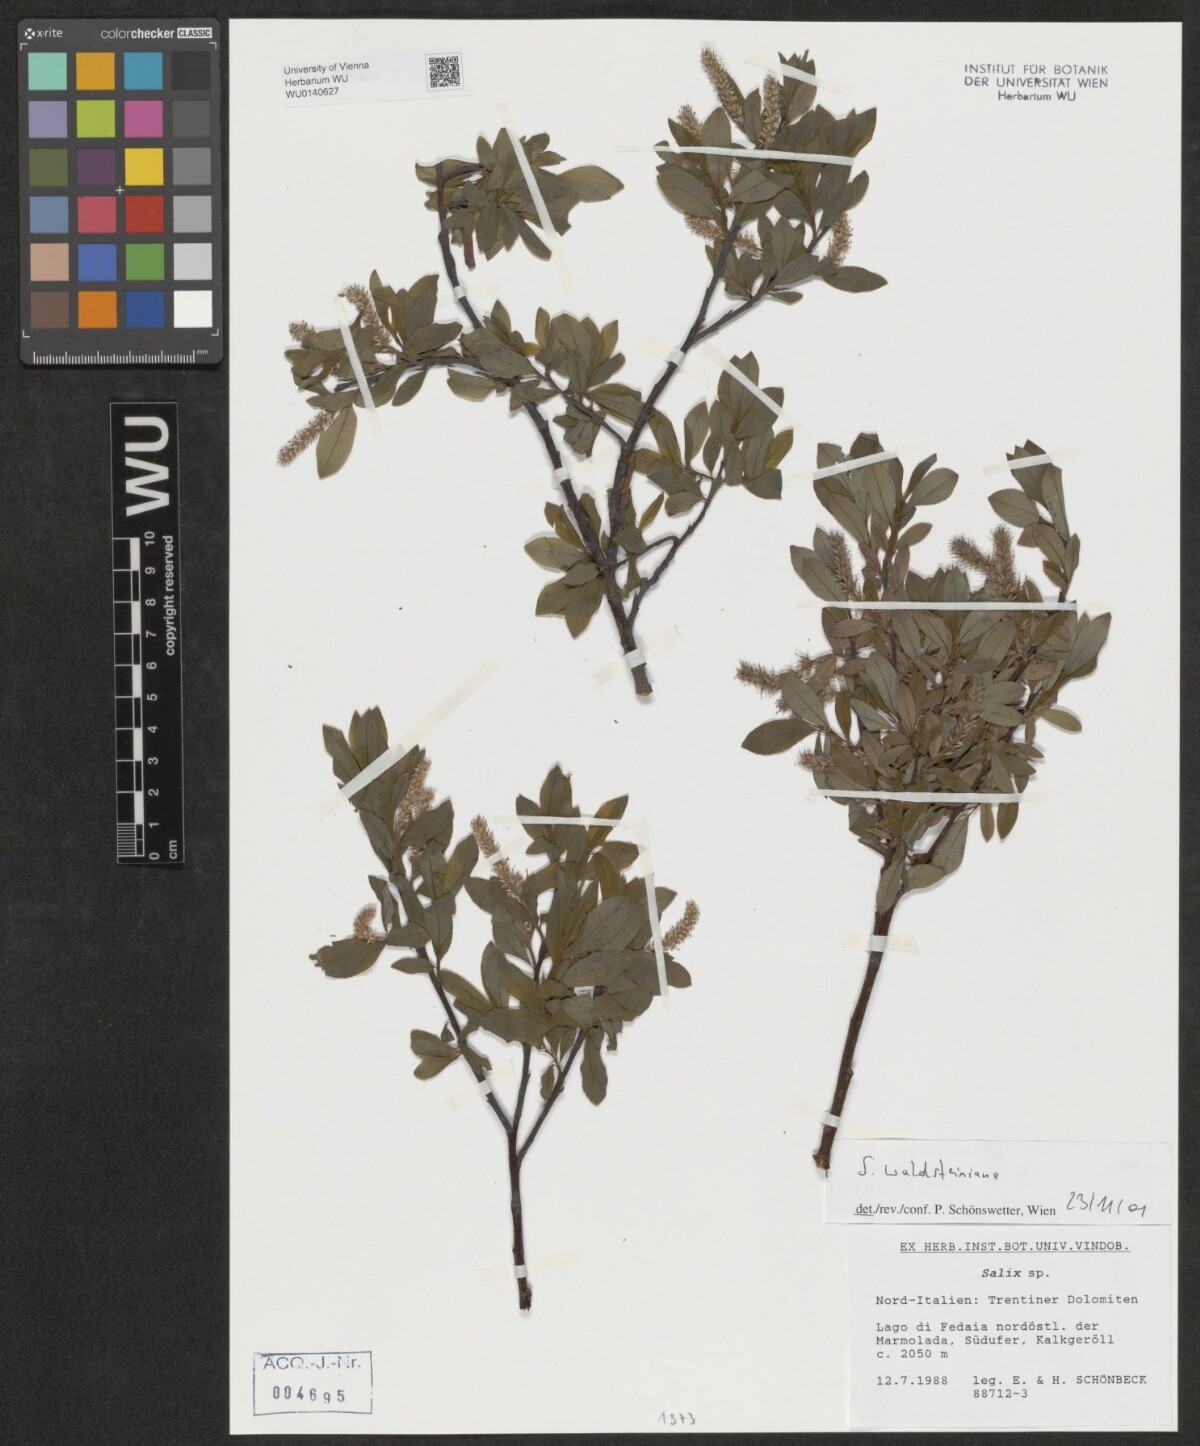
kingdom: Plantae
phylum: Tracheophyta
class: Magnoliopsida
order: Malpighiales
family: Salicaceae
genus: Salix
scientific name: Salix waldsteiniana
